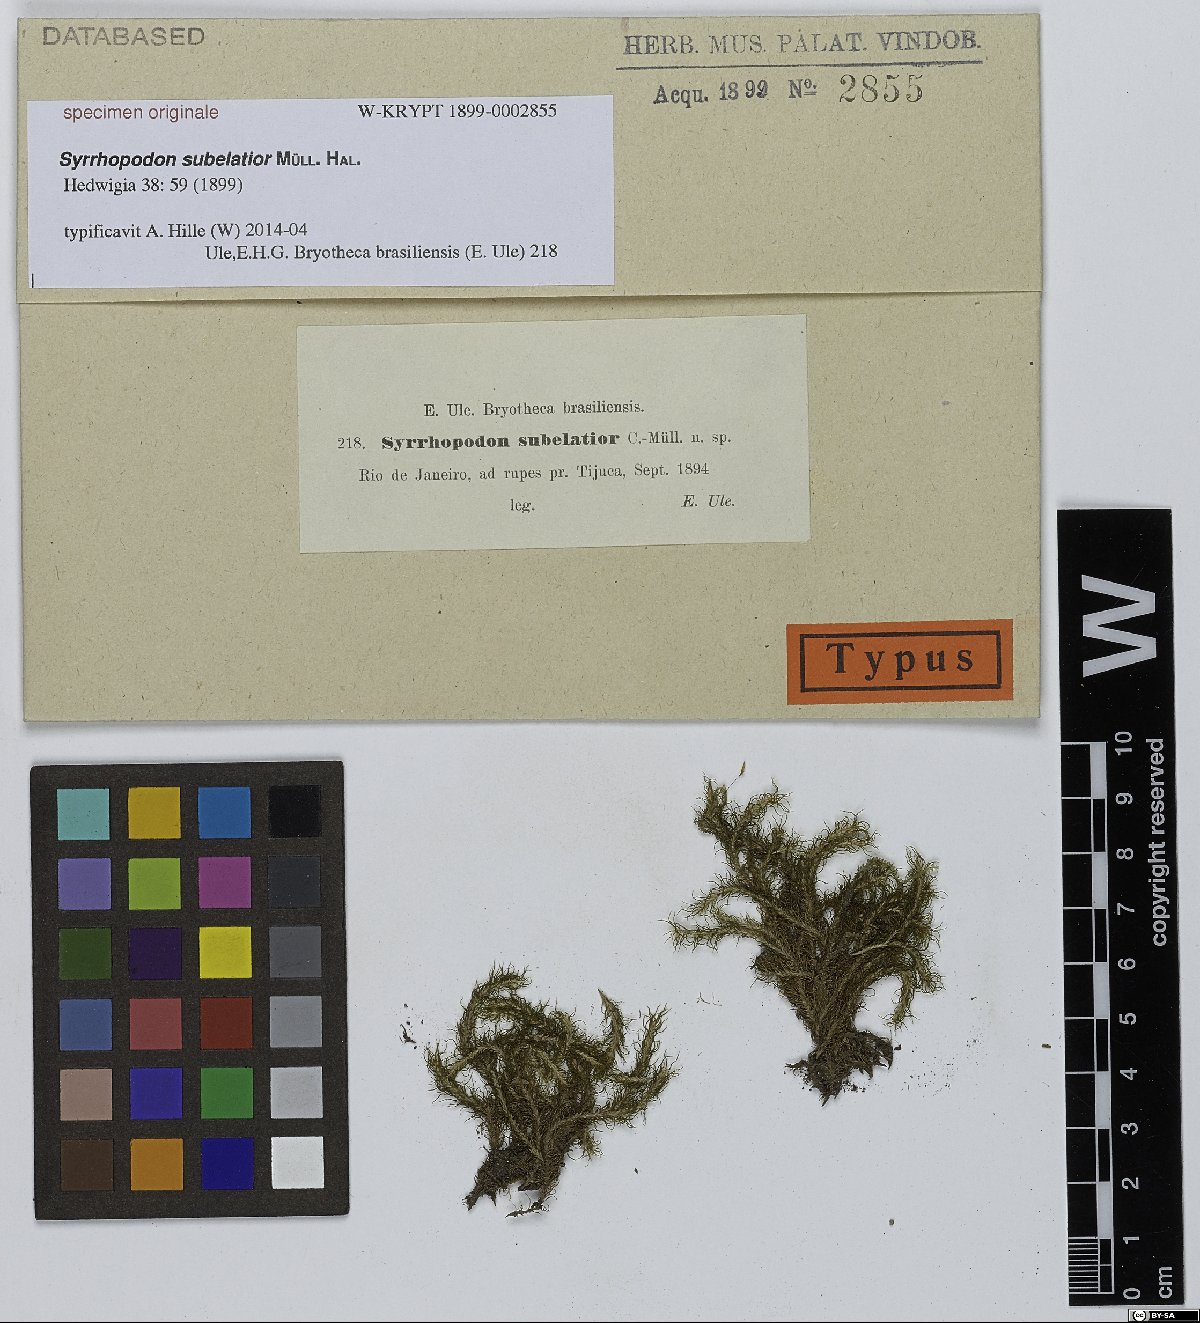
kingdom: Plantae
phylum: Bryophyta
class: Bryopsida
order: Dicranales
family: Calymperaceae
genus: Syrrhopodon
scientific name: Syrrhopodon
